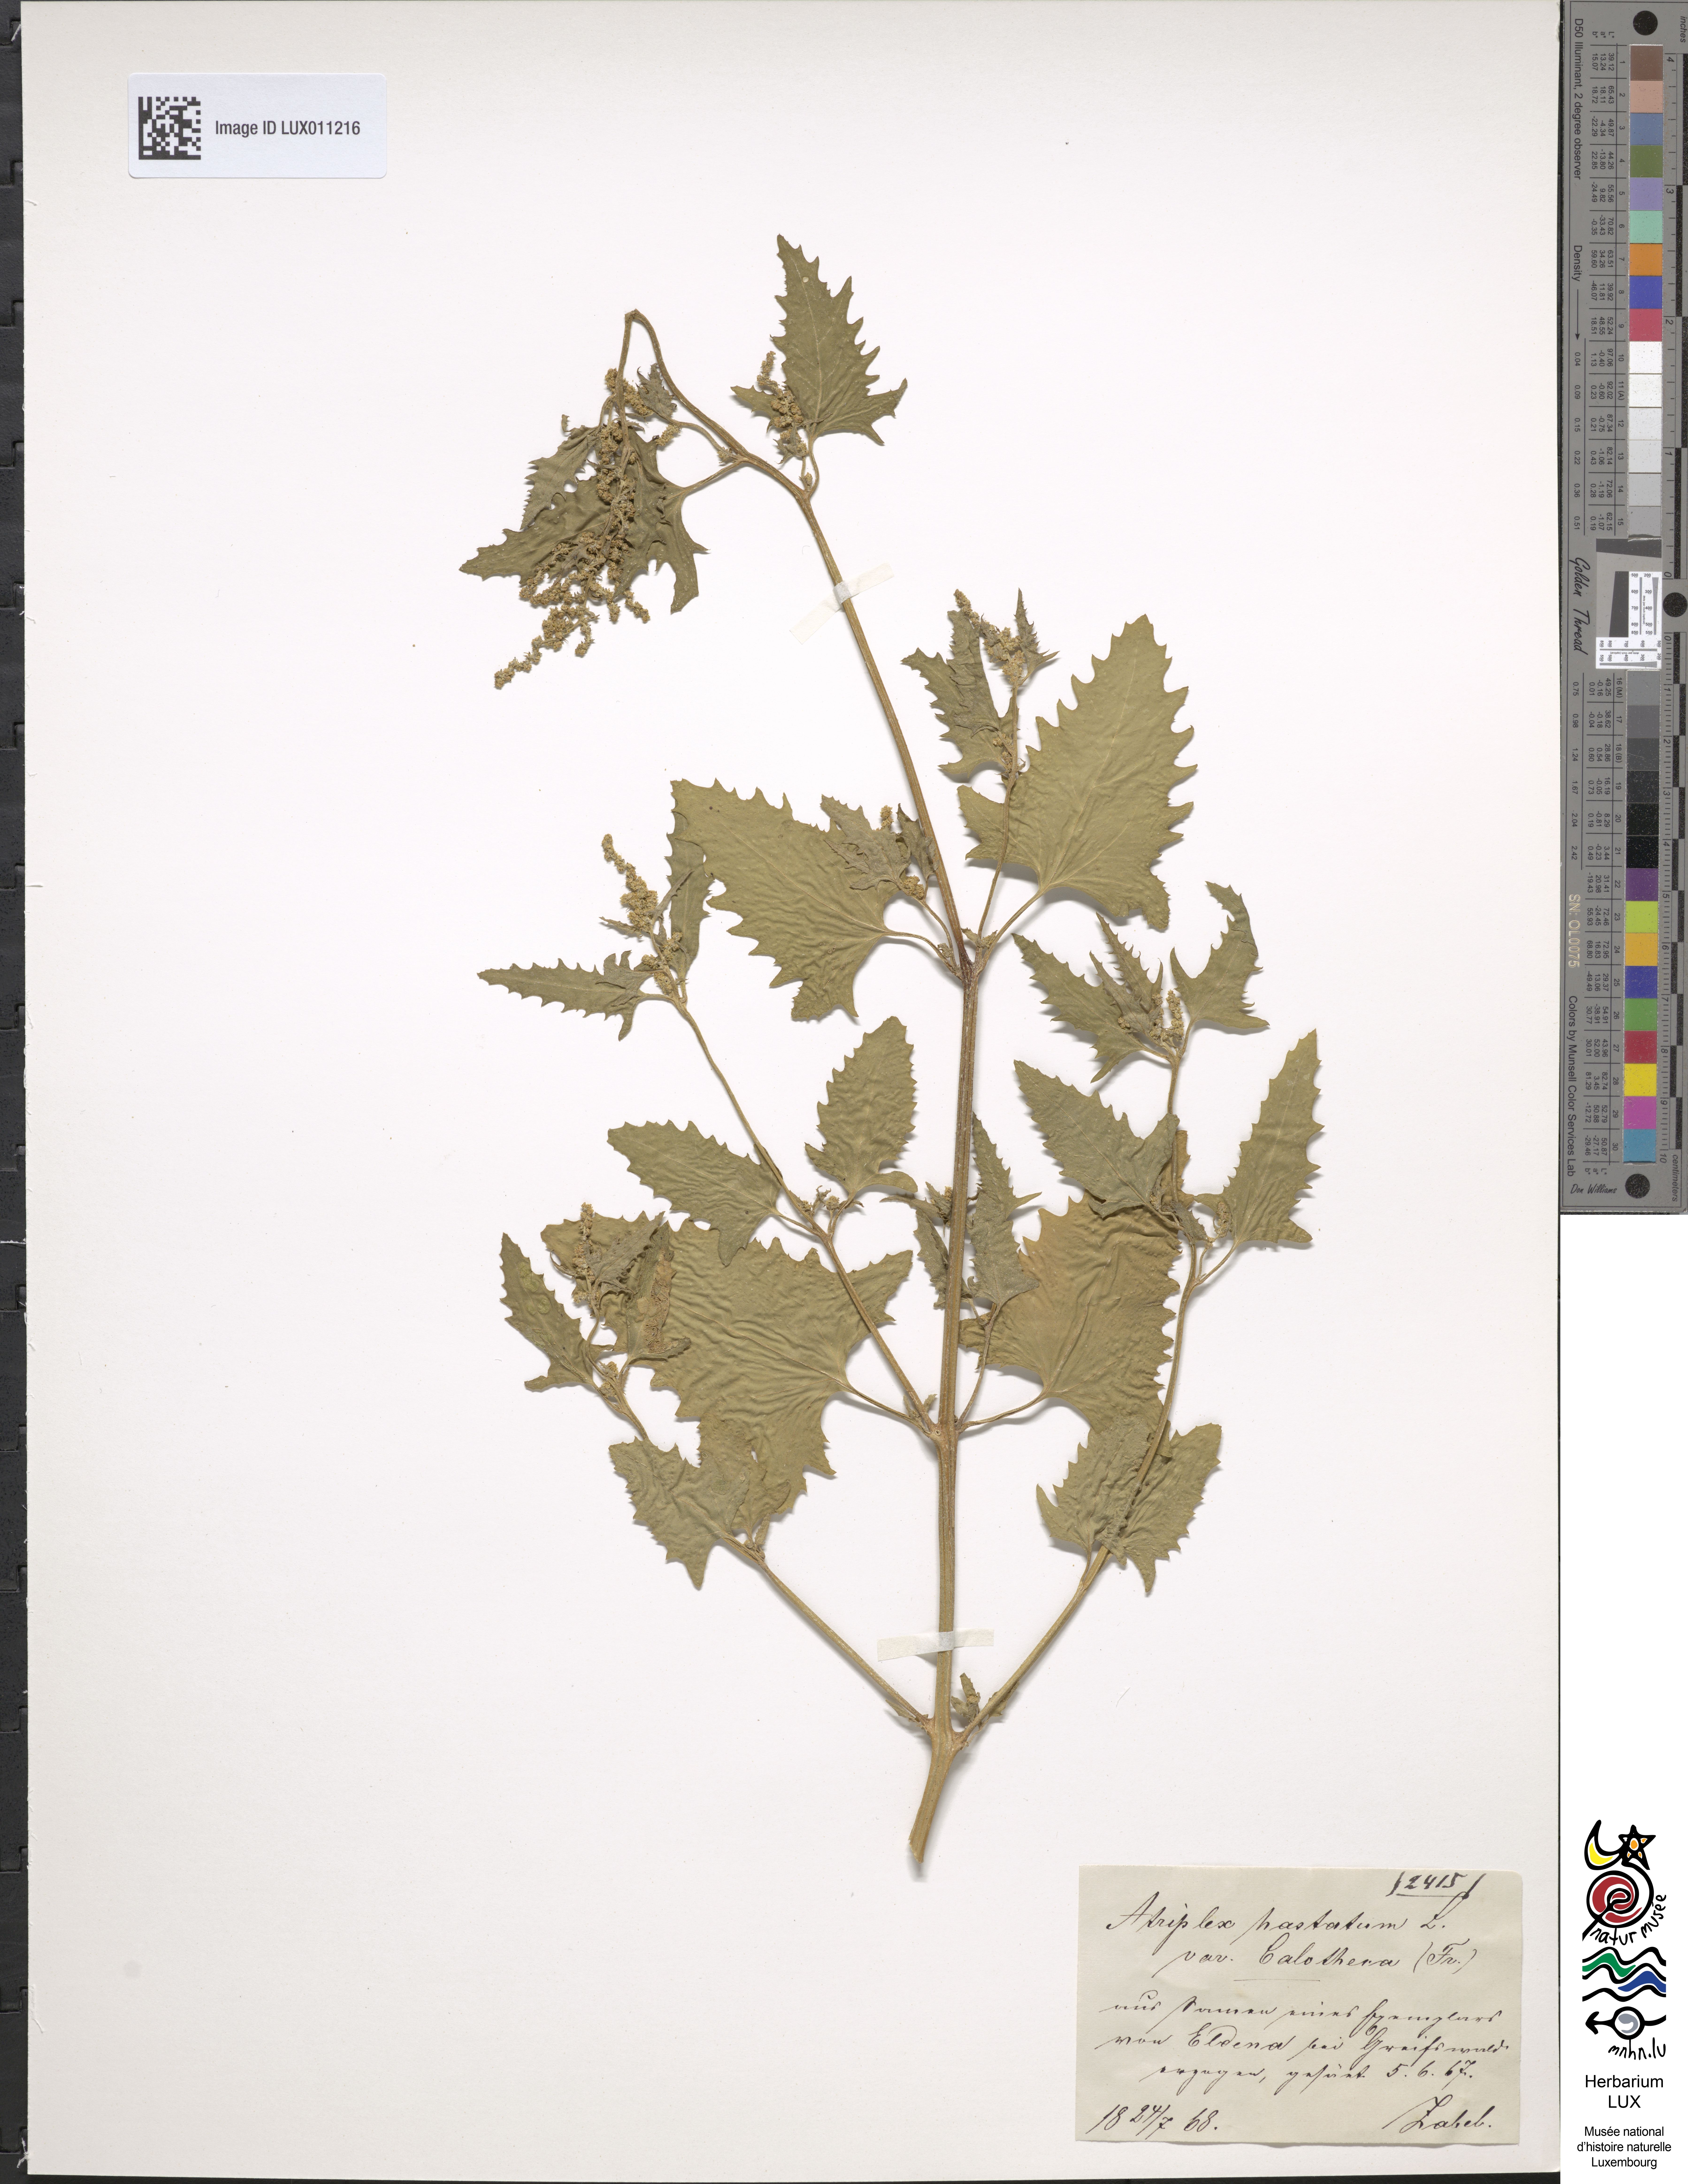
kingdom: Plantae
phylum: Tracheophyta
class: Magnoliopsida
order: Caryophyllales
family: Amaranthaceae
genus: Atriplex
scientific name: Atriplex calotheca
